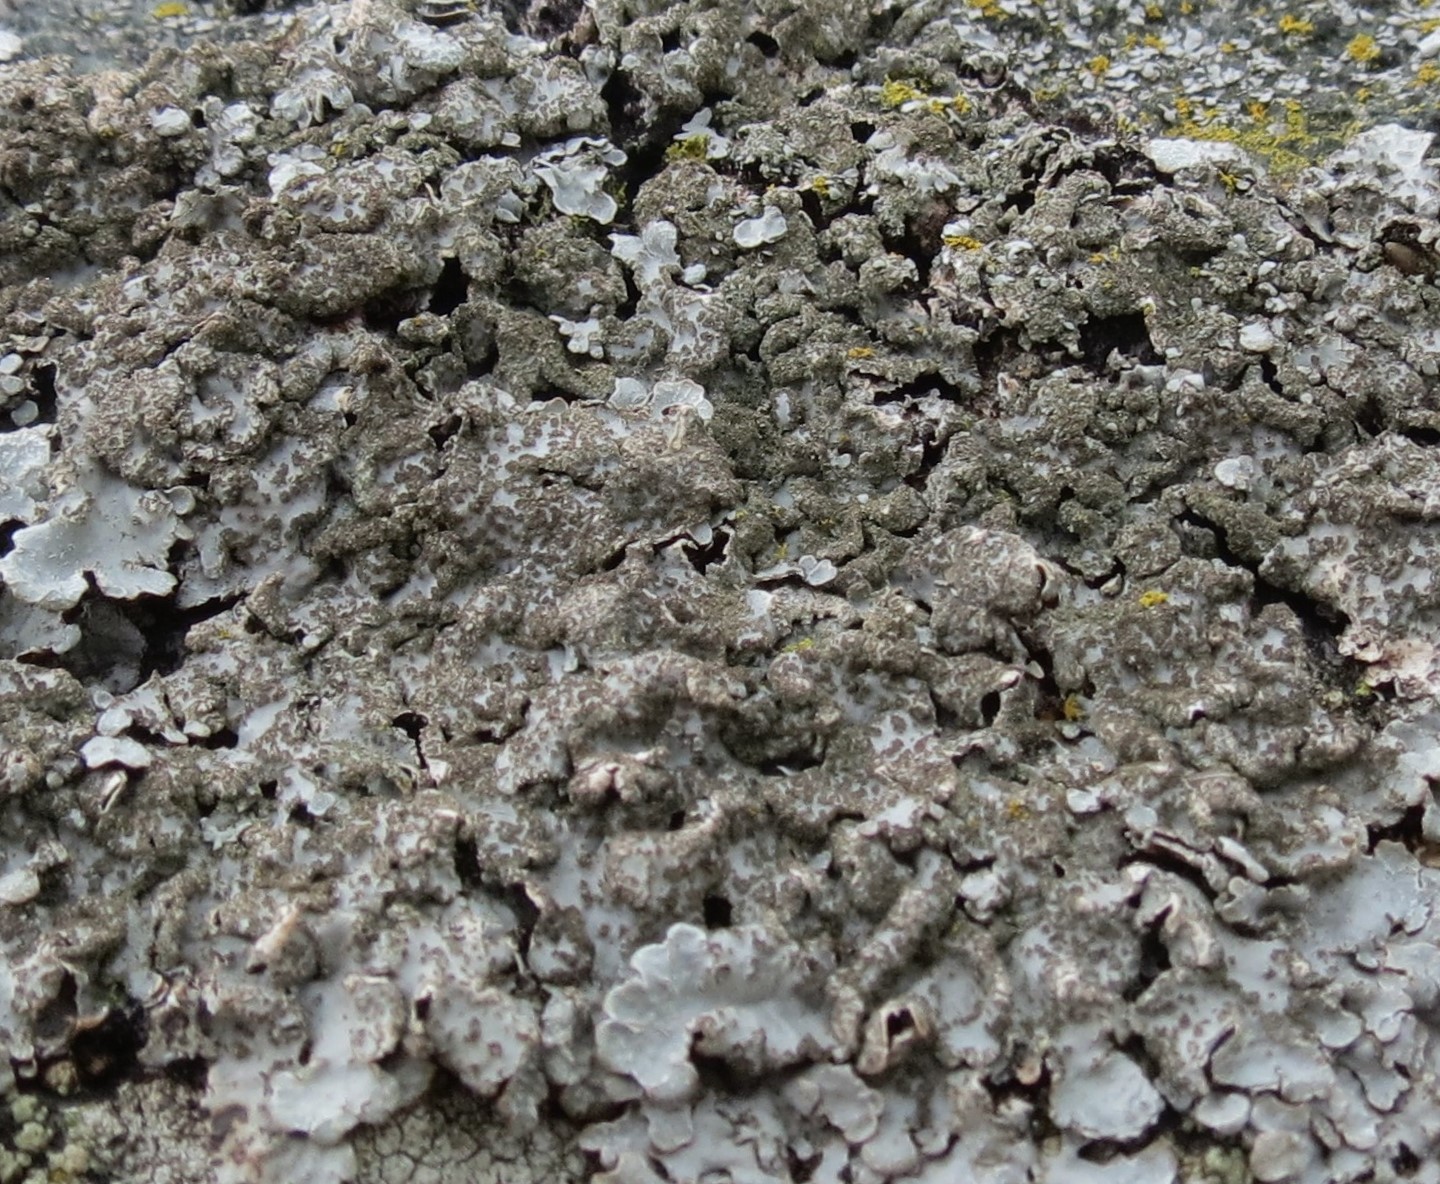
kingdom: Fungi
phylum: Ascomycota
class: Lecanoromycetes
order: Lecanorales
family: Parmeliaceae
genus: Parmelia
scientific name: Parmelia sulcata
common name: rynket skållav
